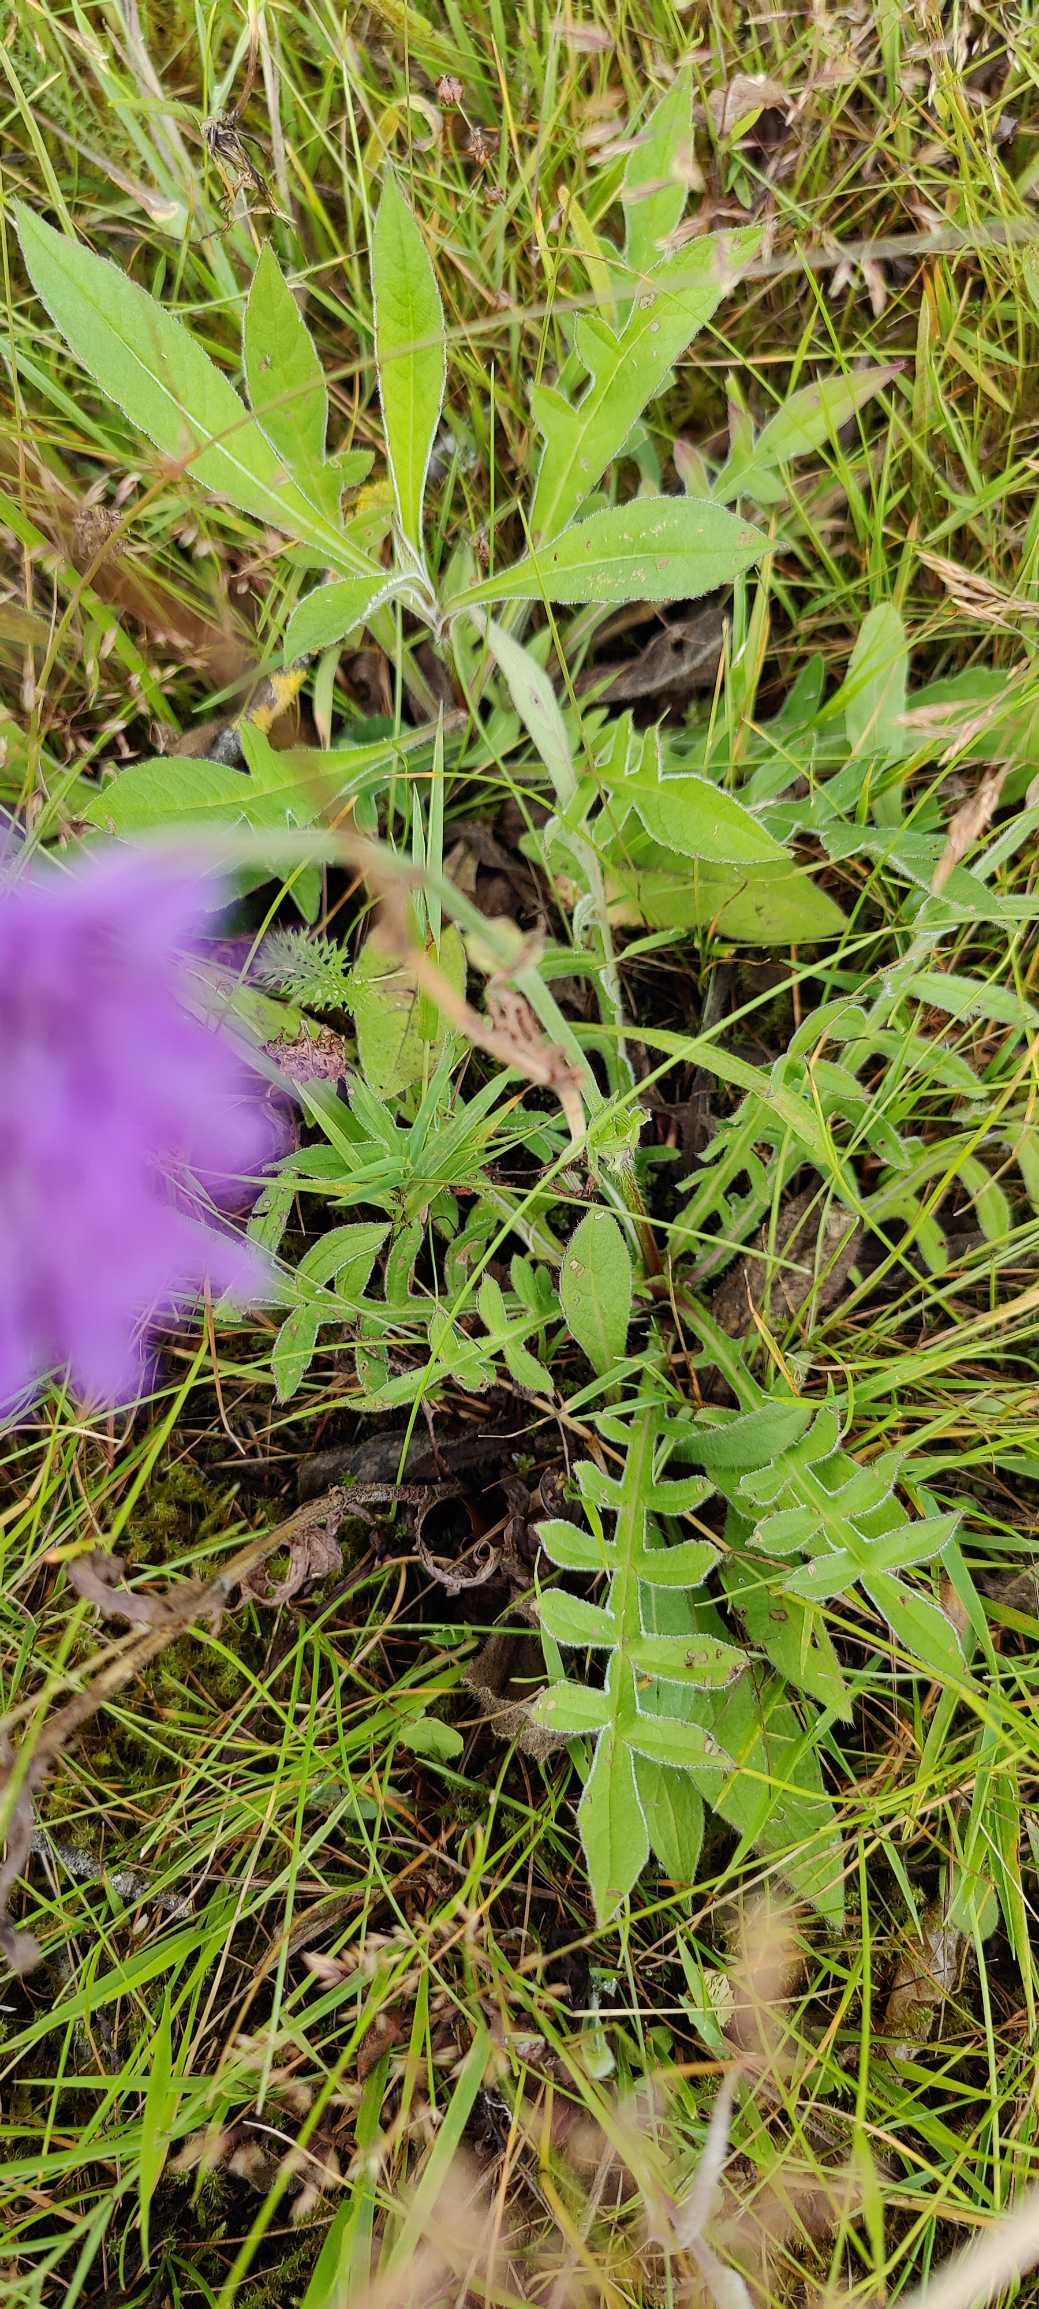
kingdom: Plantae
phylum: Tracheophyta
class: Magnoliopsida
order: Dipsacales
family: Caprifoliaceae
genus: Knautia
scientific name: Knautia arvensis
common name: Blåhat
